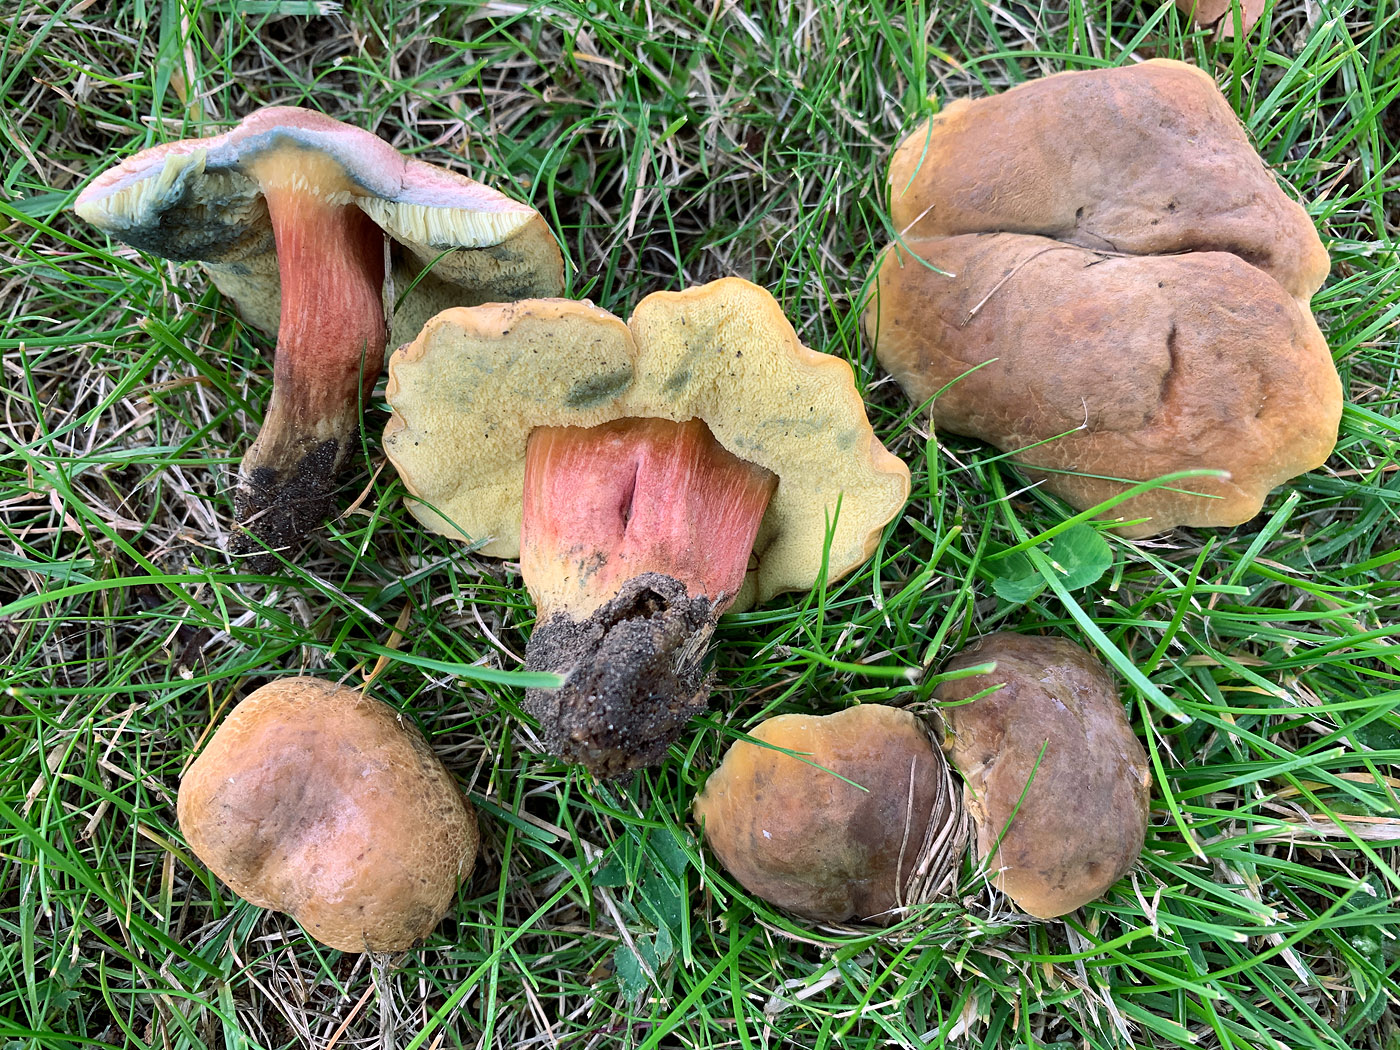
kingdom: Fungi
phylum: Basidiomycota
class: Agaricomycetes
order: Boletales
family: Boletaceae
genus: Hortiboletus
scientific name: Hortiboletus bubalinus
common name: aurora-rørhat
